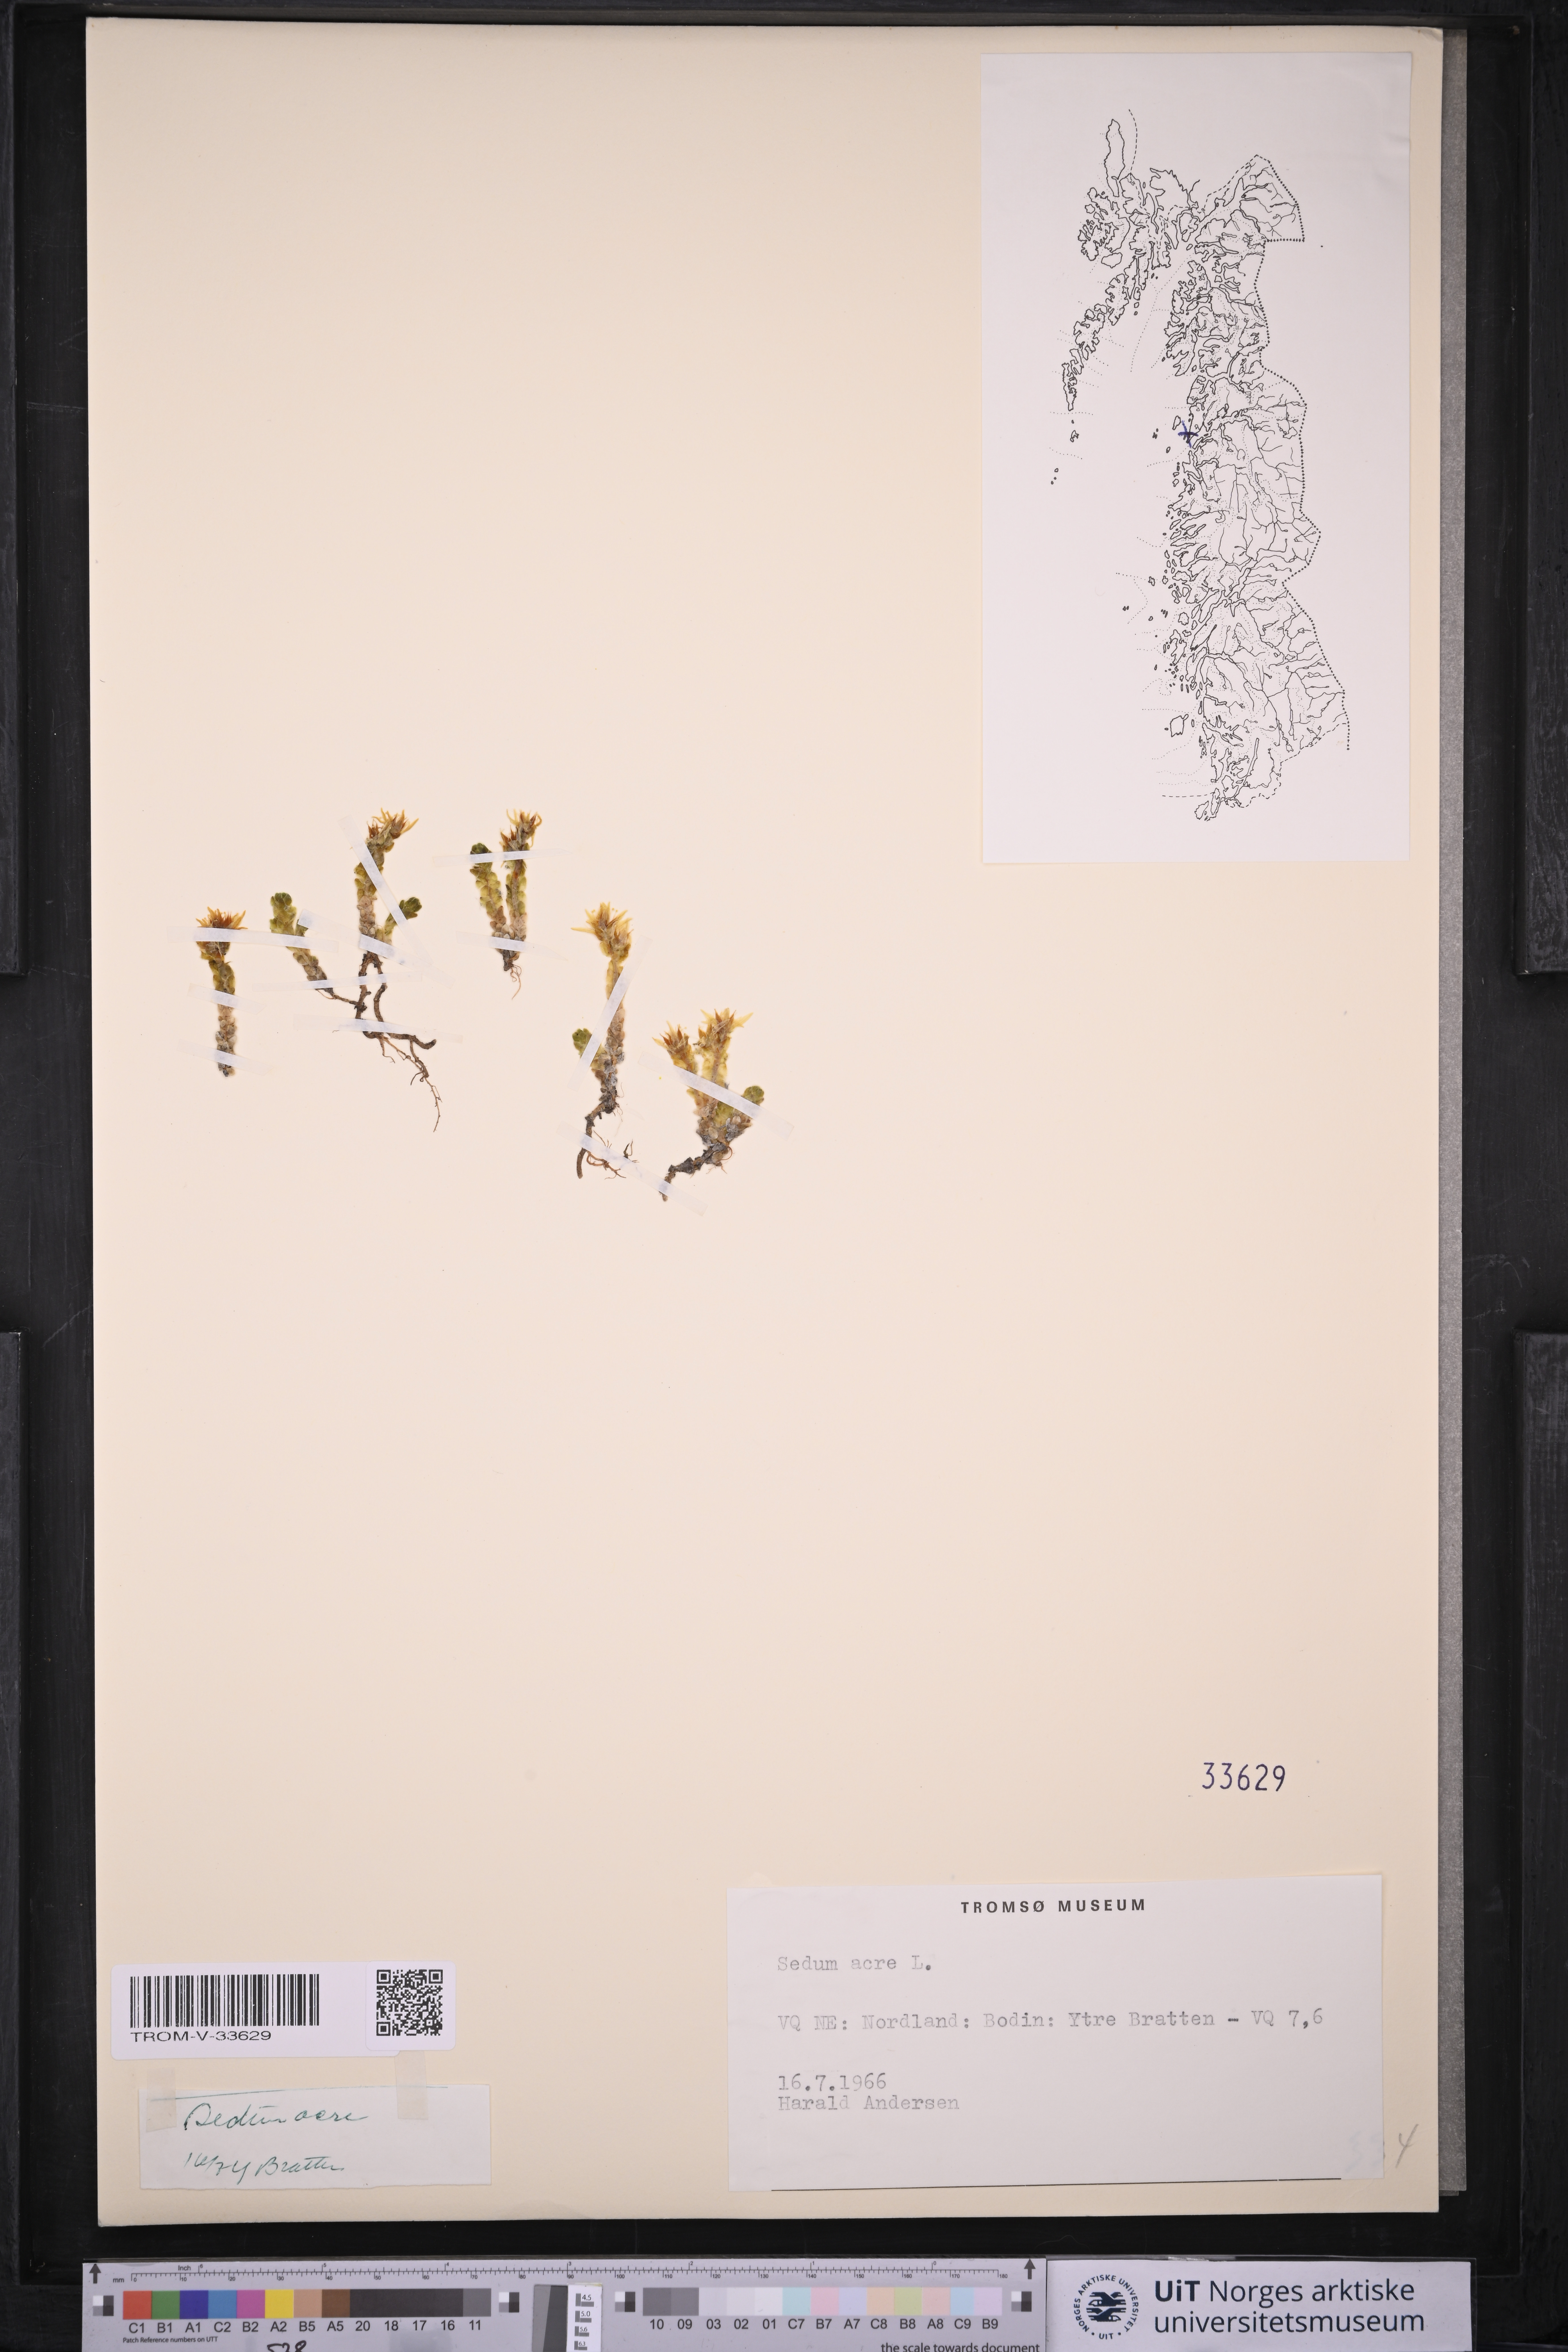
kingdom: Plantae
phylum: Tracheophyta
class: Magnoliopsida
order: Saxifragales
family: Crassulaceae
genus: Sedum
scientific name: Sedum acre
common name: Biting stonecrop
